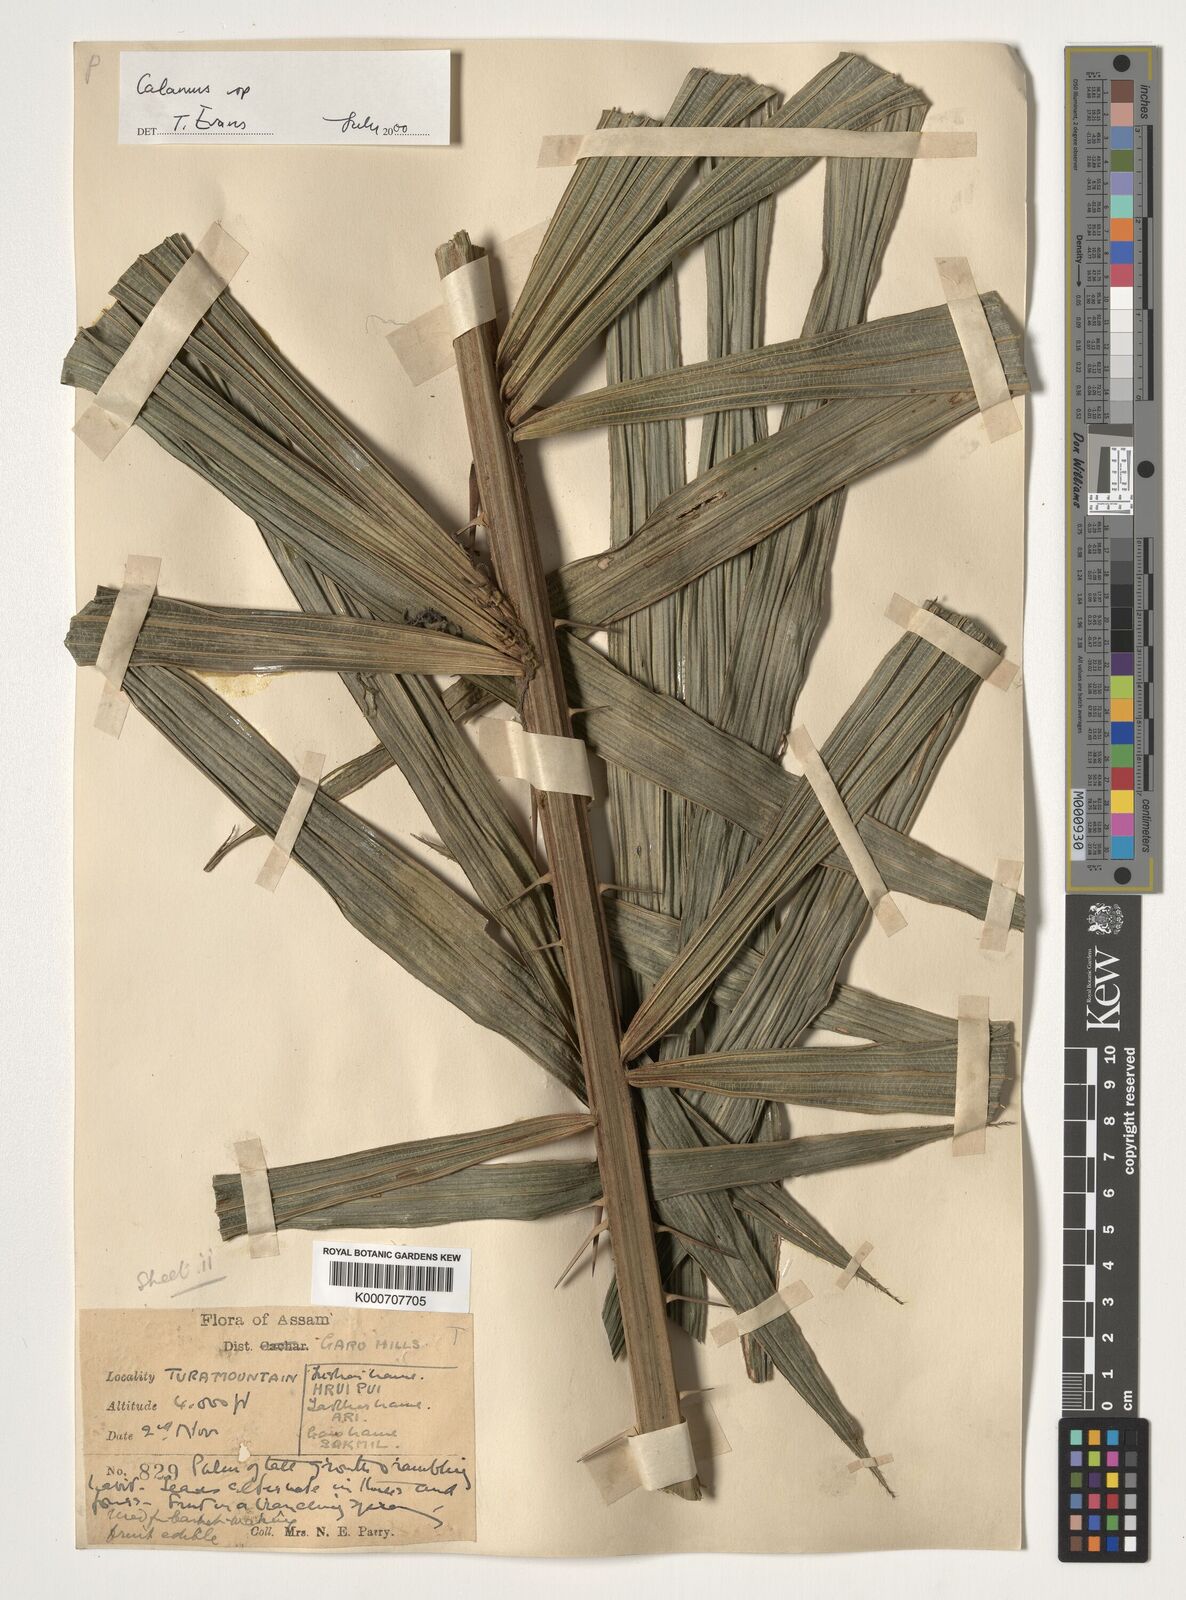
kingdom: Plantae
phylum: Tracheophyta
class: Liliopsida
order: Arecales
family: Arecaceae
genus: Calamus
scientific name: Calamus
